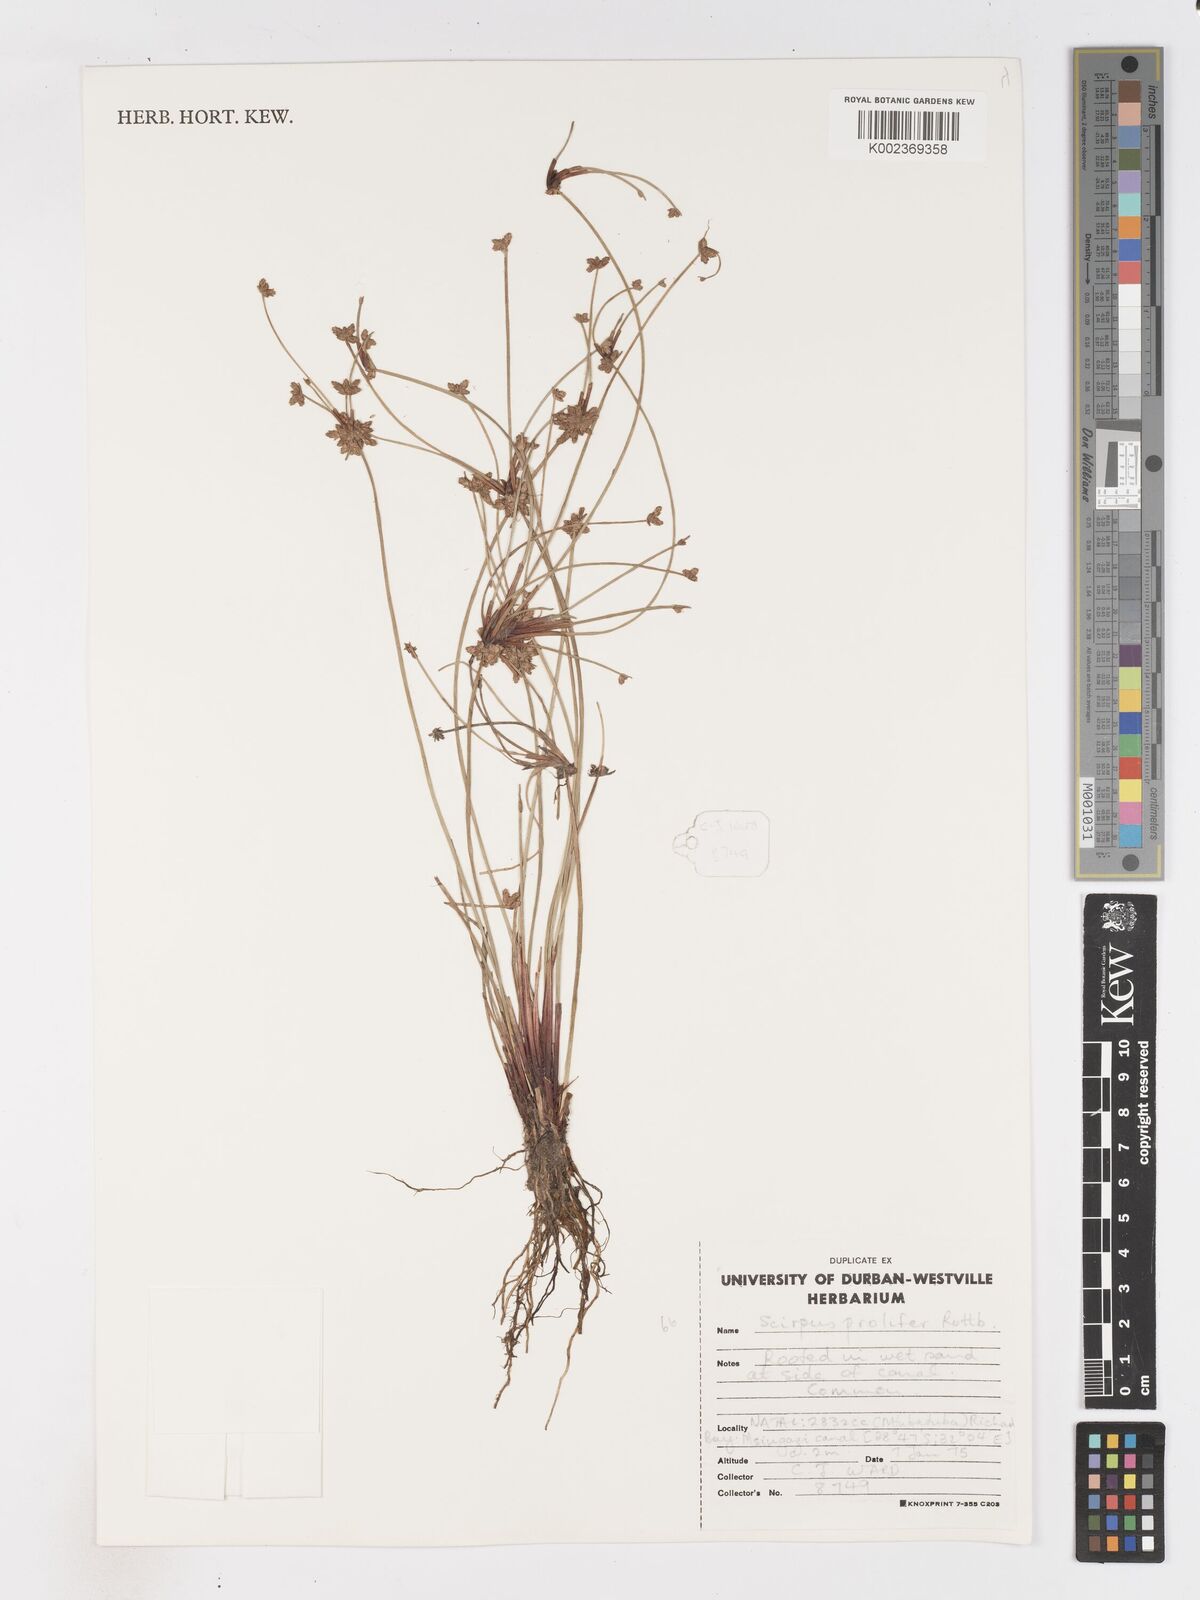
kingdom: Plantae
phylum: Tracheophyta
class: Liliopsida
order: Poales
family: Cyperaceae
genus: Isolepis
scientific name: Isolepis prolifera
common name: Proliferating bulrush
